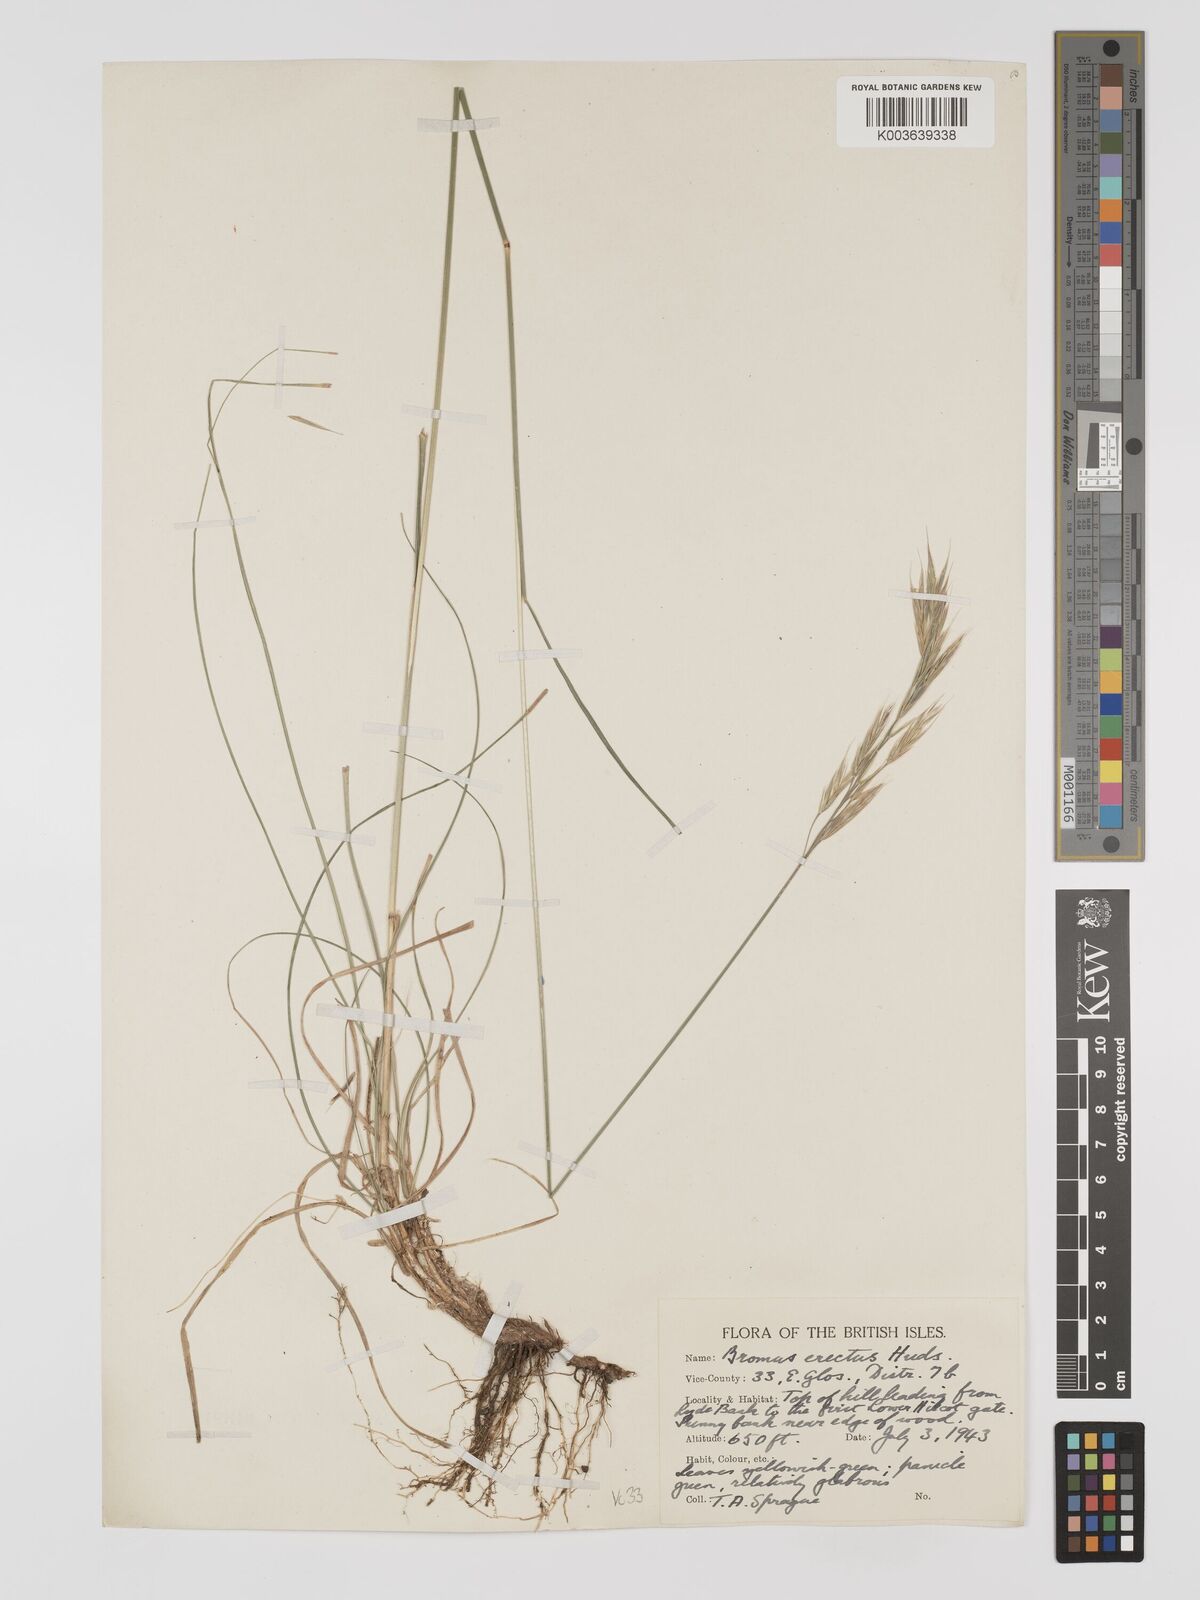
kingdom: Plantae
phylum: Tracheophyta
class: Liliopsida
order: Poales
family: Poaceae
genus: Bromus
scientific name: Bromus erectus
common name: Erect brome
